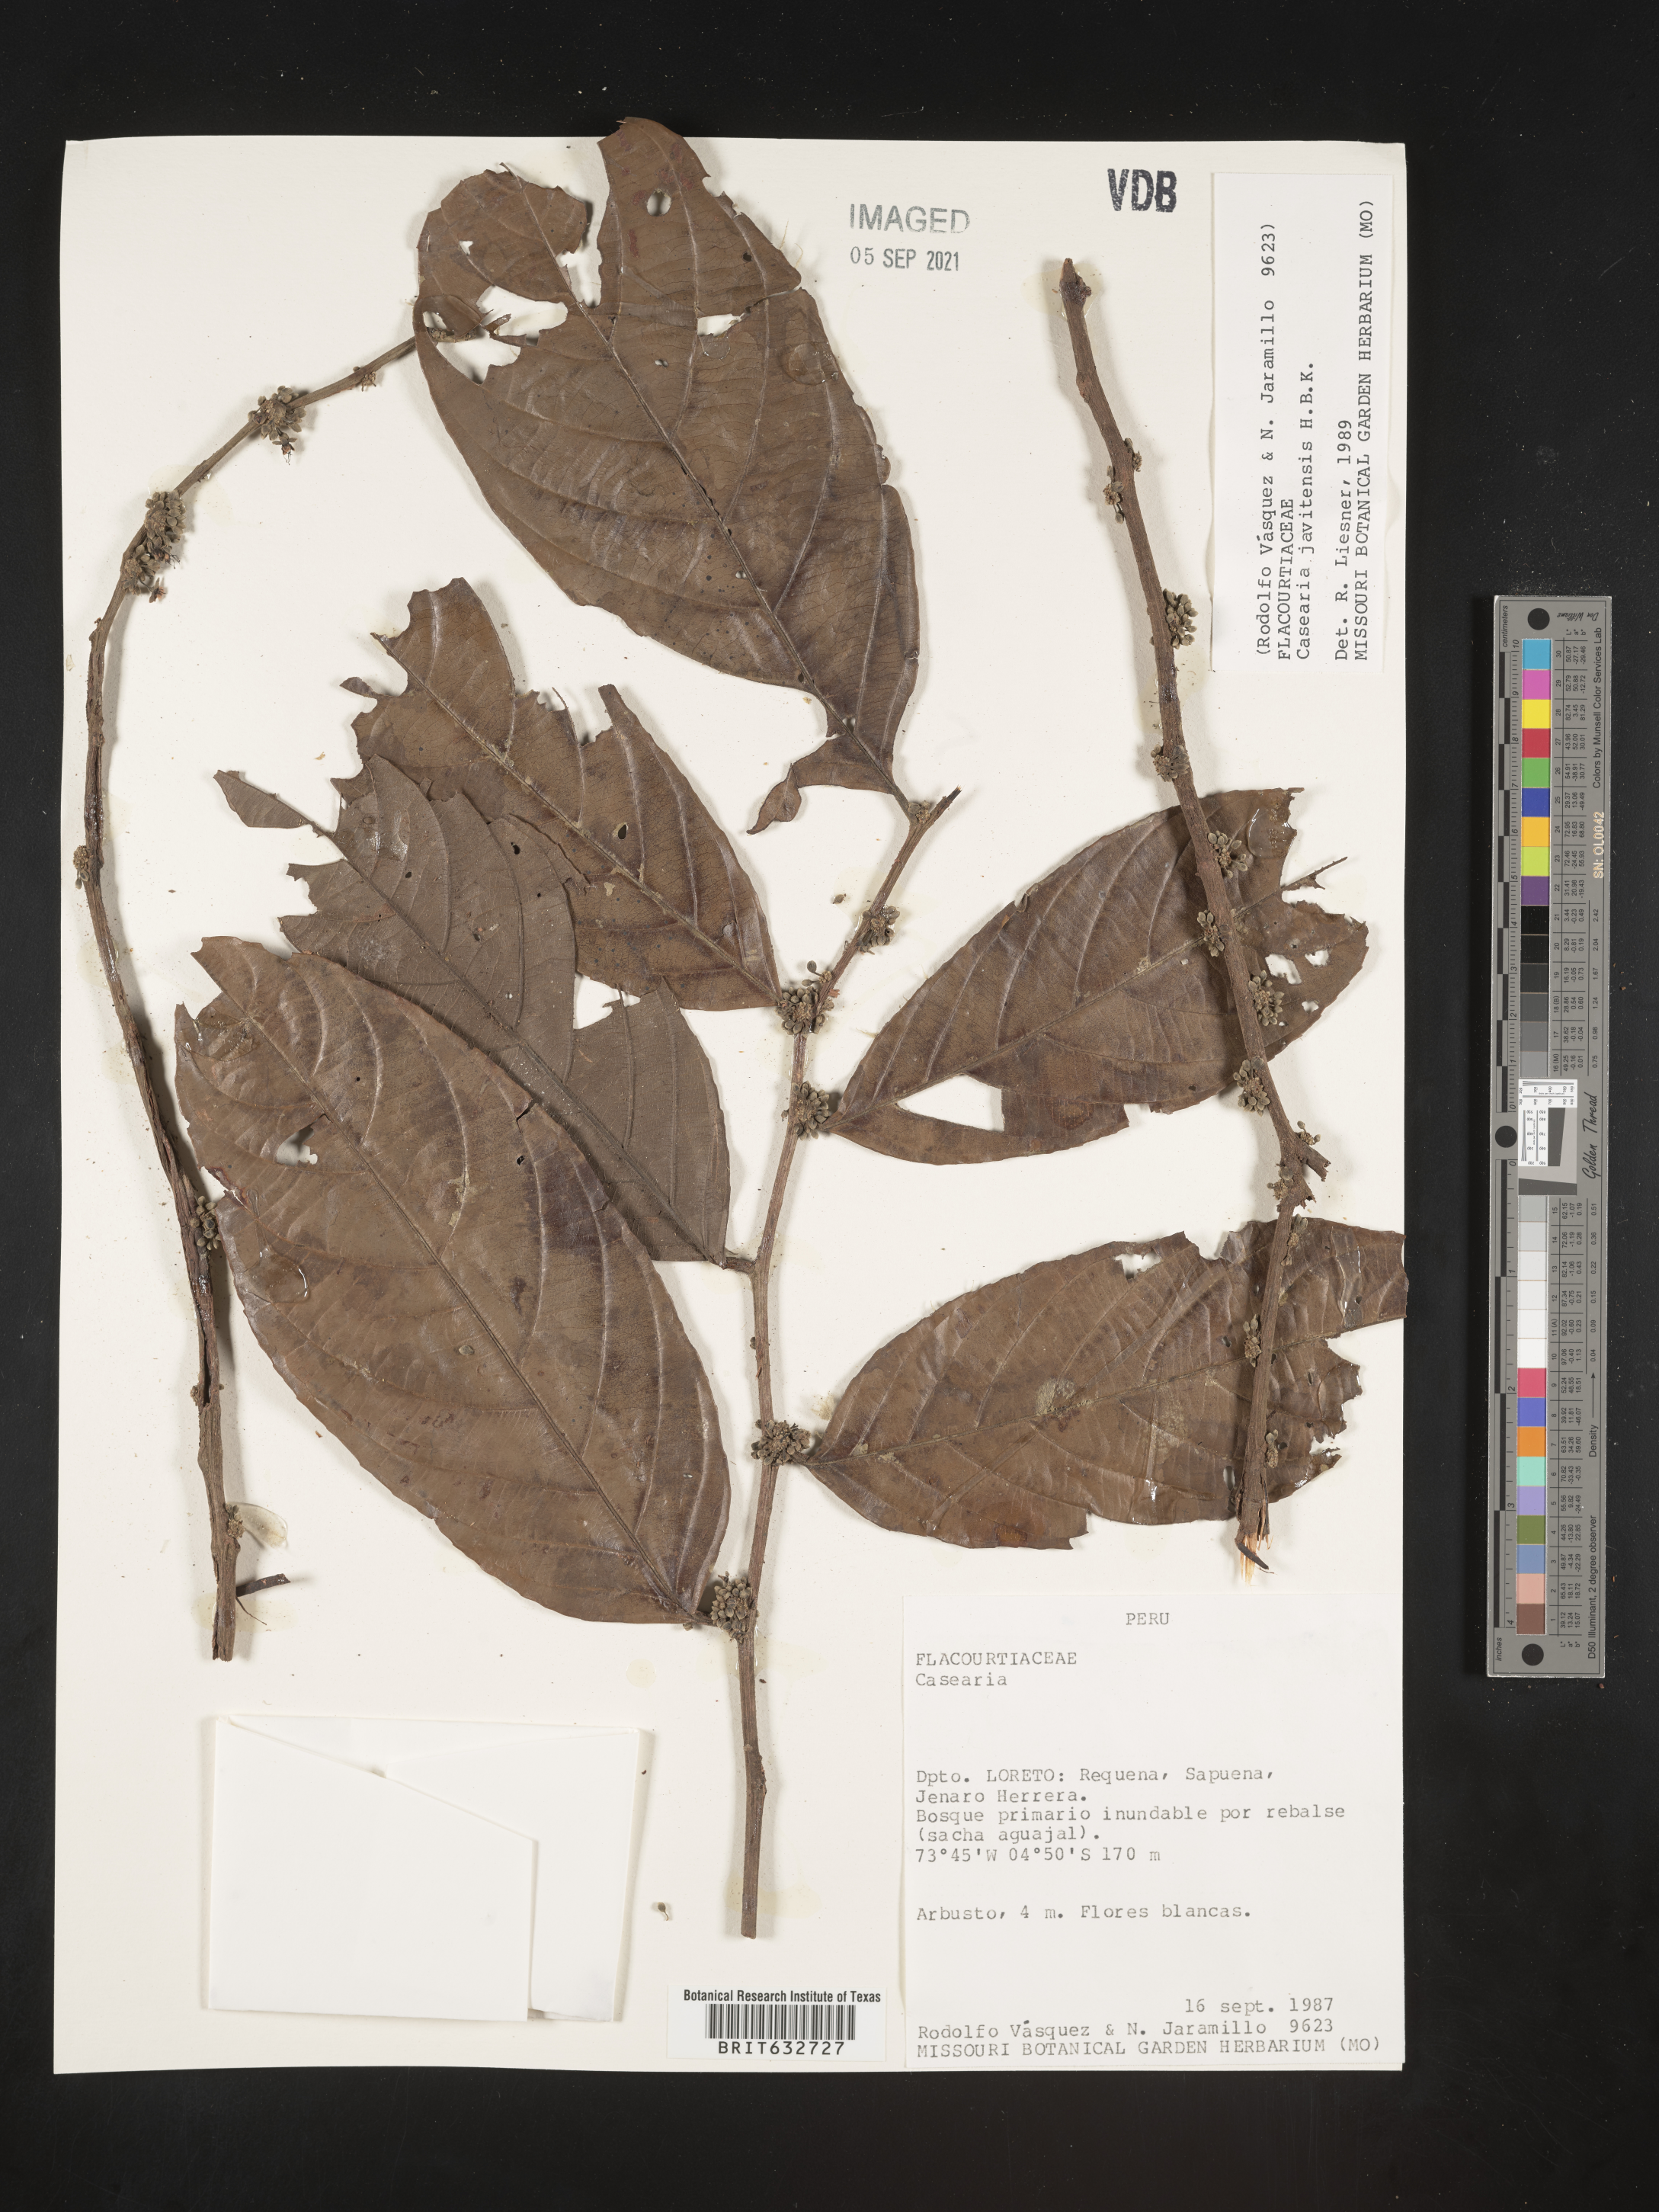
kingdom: Plantae
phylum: Tracheophyta
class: Magnoliopsida
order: Malpighiales
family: Salicaceae
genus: Casearia
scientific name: Casearia
